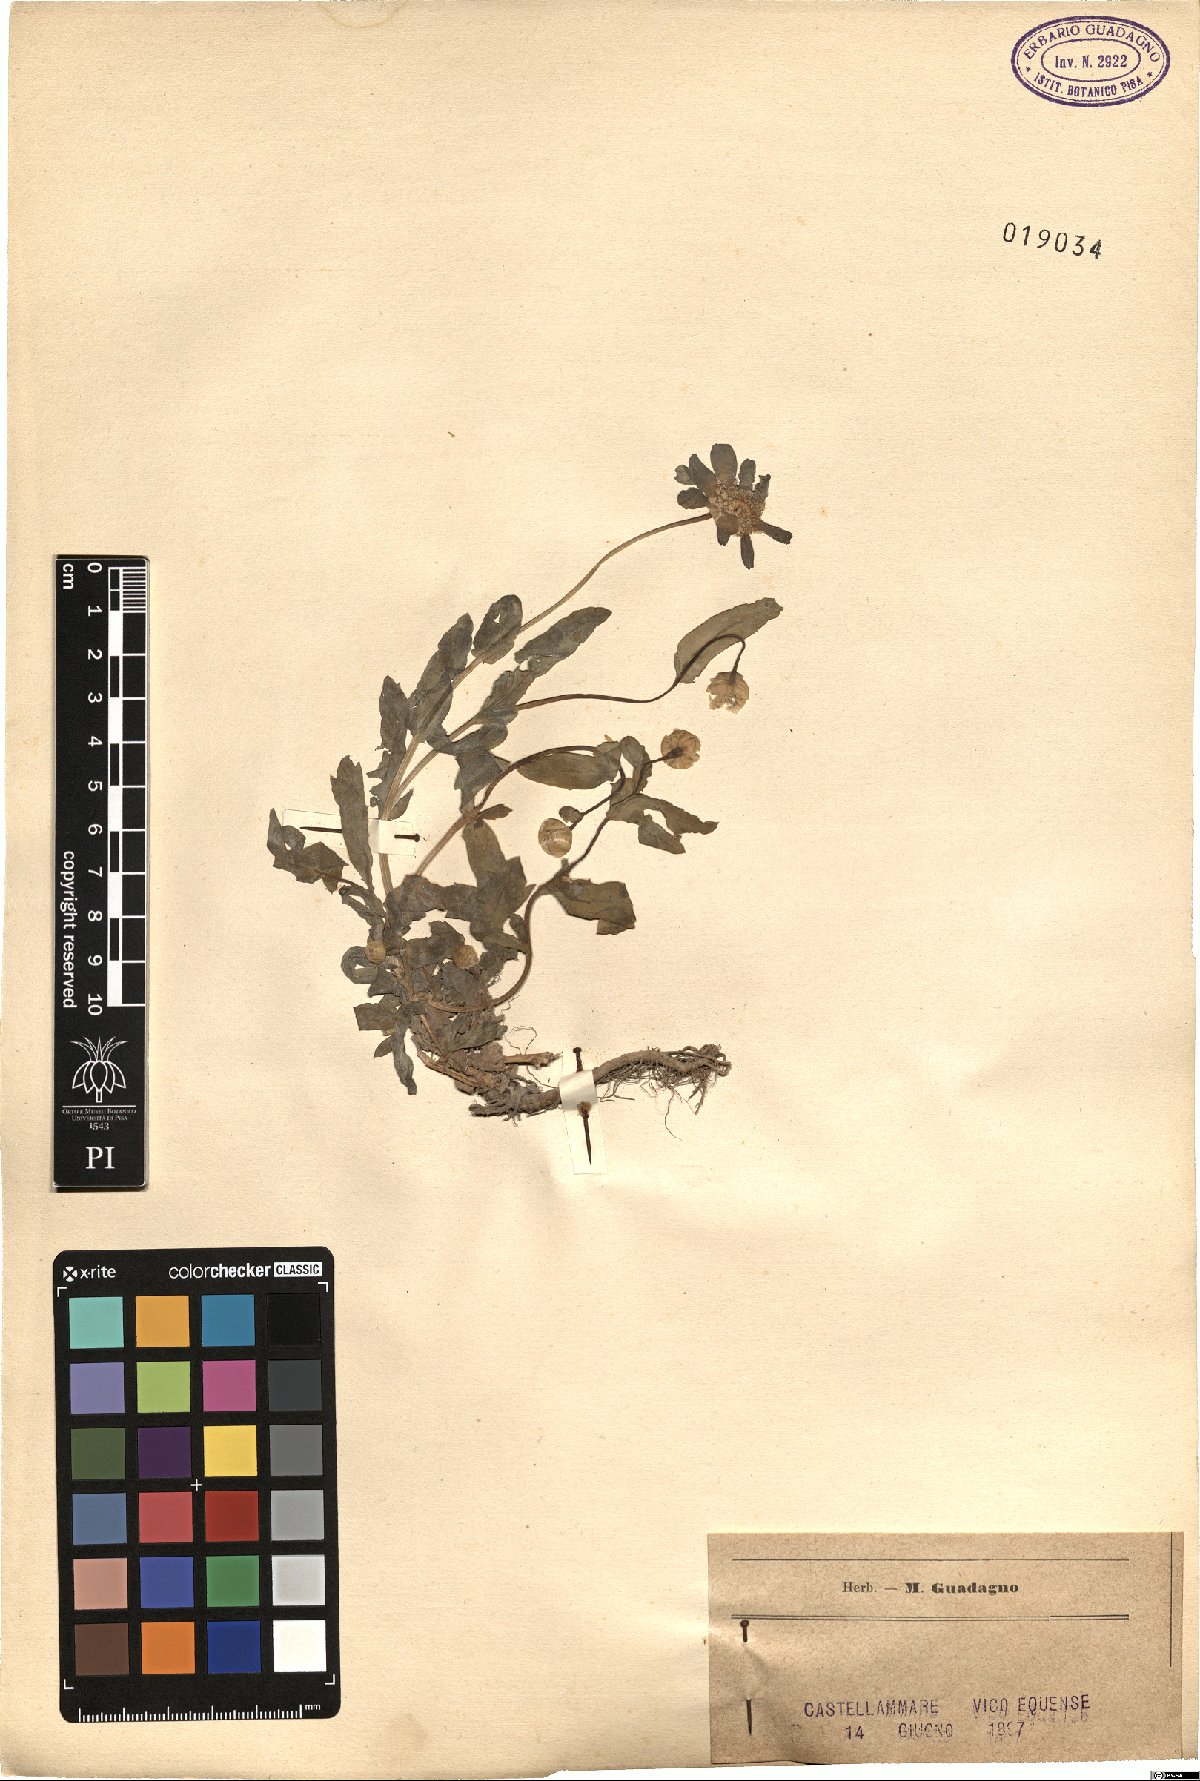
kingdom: Plantae
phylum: Tracheophyta
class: Magnoliopsida
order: Asterales
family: Asteraceae
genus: Pyrethrum
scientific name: Pyrethrum
